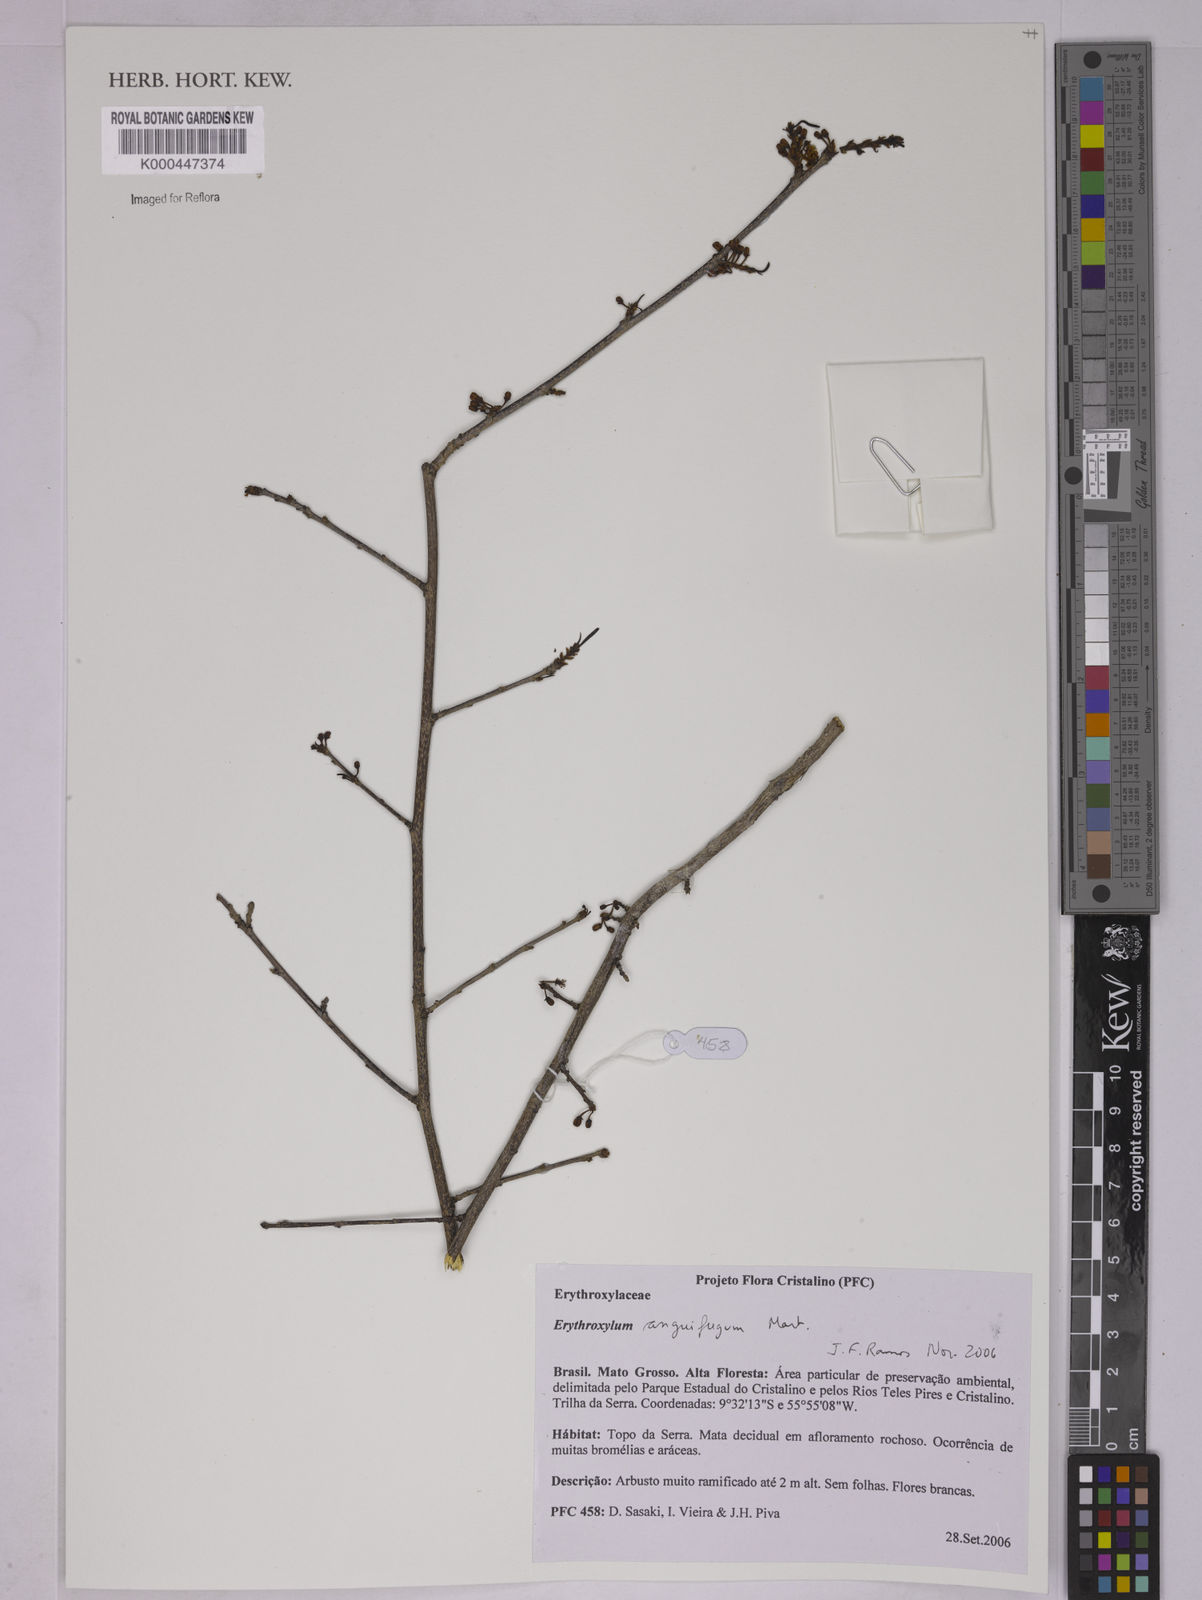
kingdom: Plantae
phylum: Tracheophyta
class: Magnoliopsida
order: Malpighiales
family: Erythroxylaceae
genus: Erythroxylum
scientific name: Erythroxylum anguifugum
